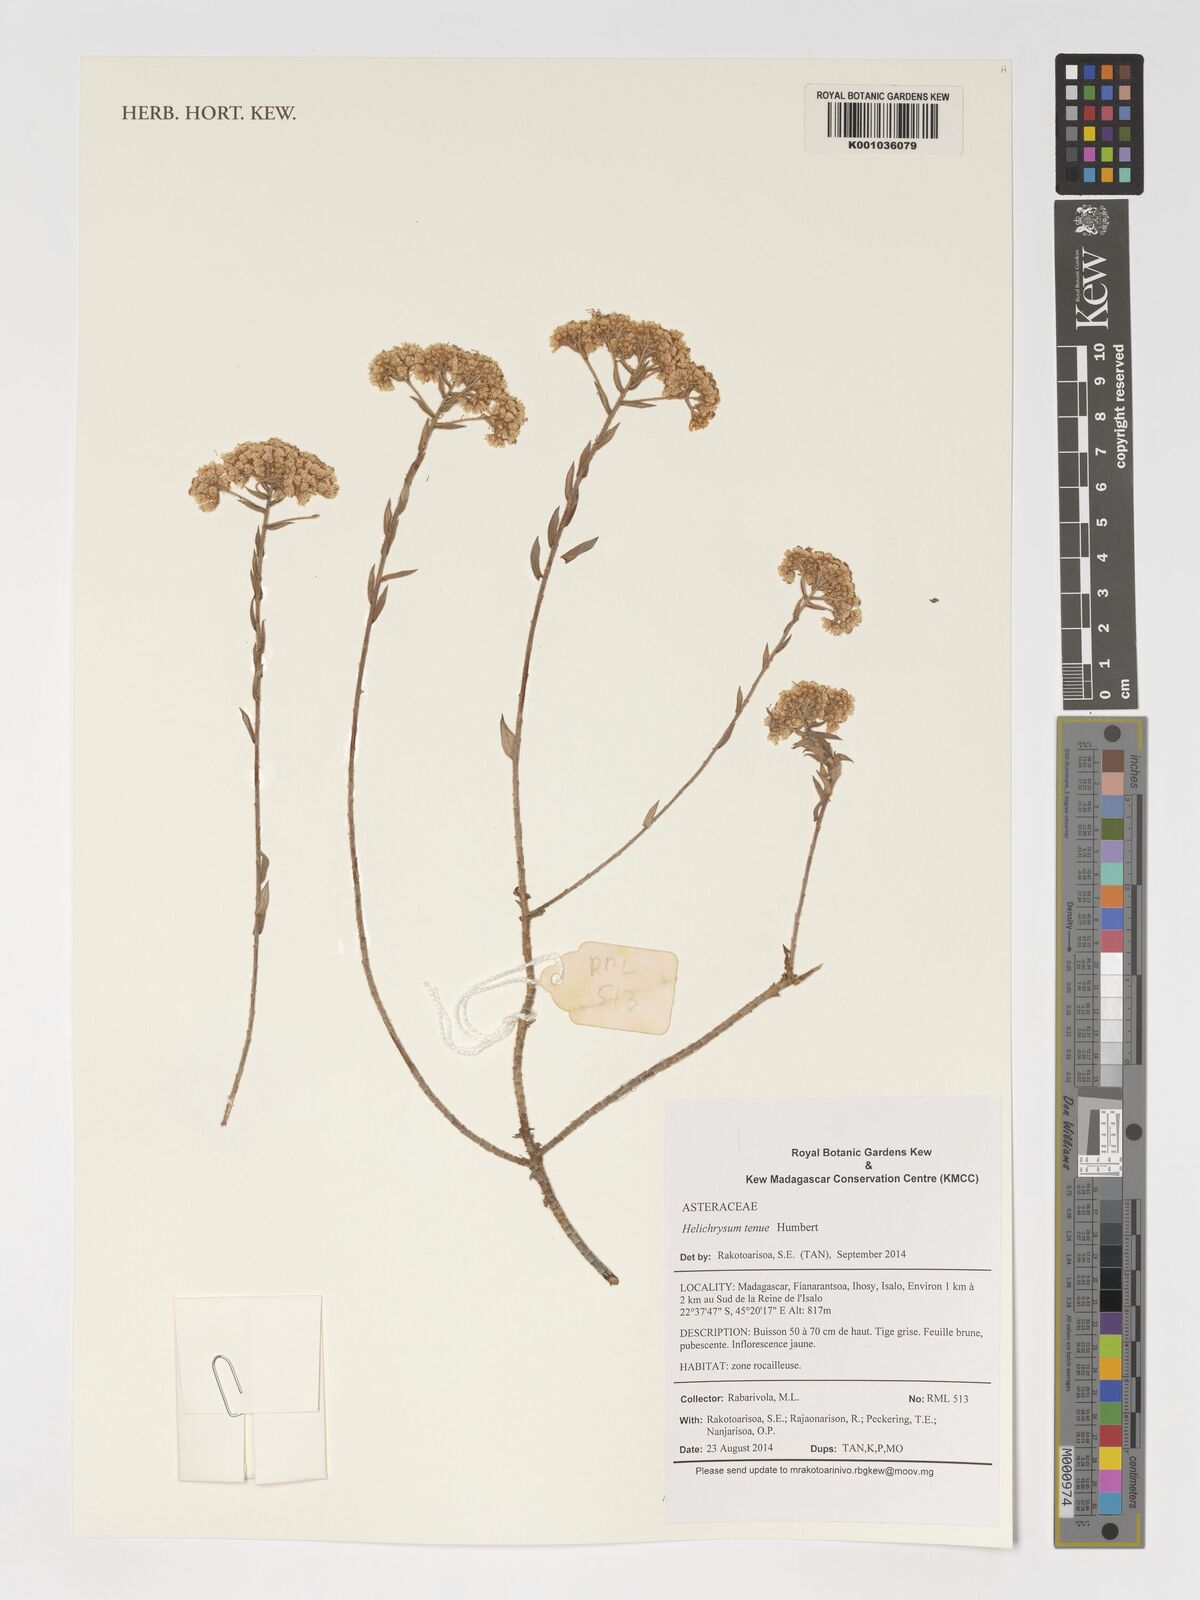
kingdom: Plantae
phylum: Tracheophyta
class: Magnoliopsida
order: Asterales
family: Asteraceae
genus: Helichrysum
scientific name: Helichrysum tenue
